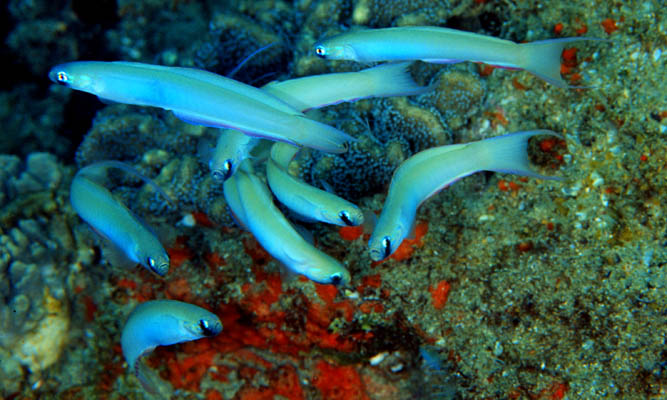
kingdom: Animalia
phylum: Chordata
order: Perciformes
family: Microdesmidae
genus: Ptereleotris
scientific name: Ptereleotris monoptera
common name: Lyre-tail dart-goby
